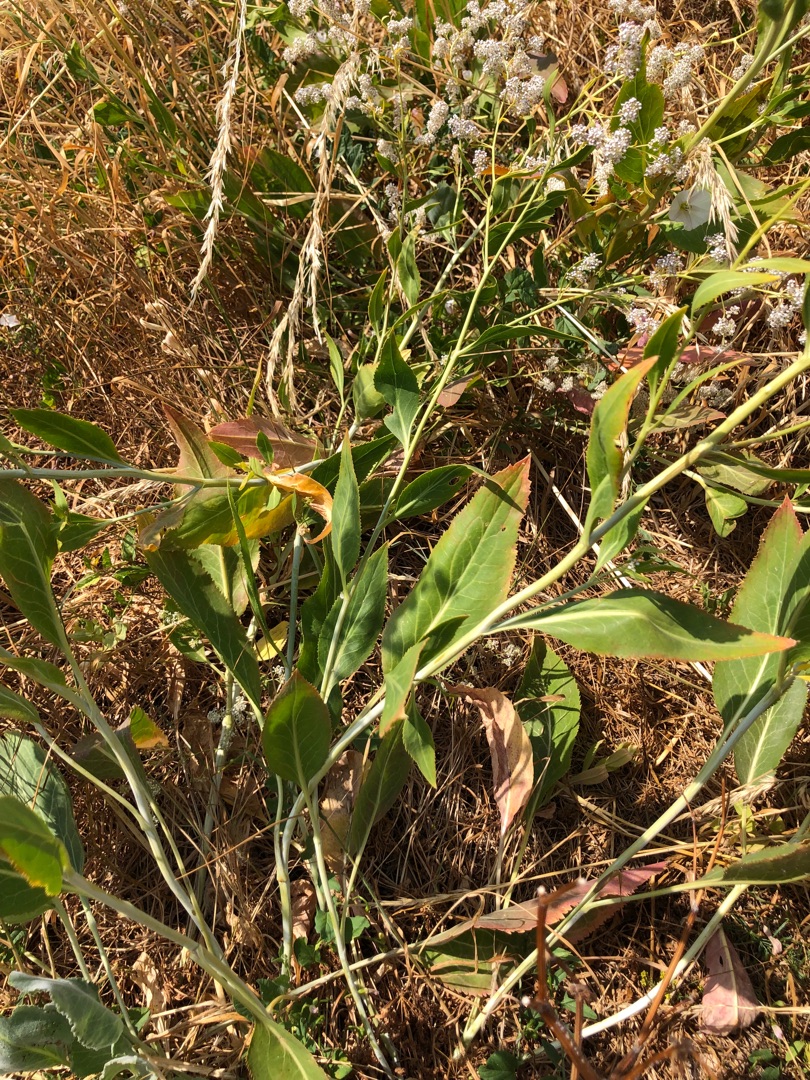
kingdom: Plantae
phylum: Tracheophyta
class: Magnoliopsida
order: Brassicales
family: Brassicaceae
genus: Lepidium
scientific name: Lepidium latifolium
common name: Strand-karse
